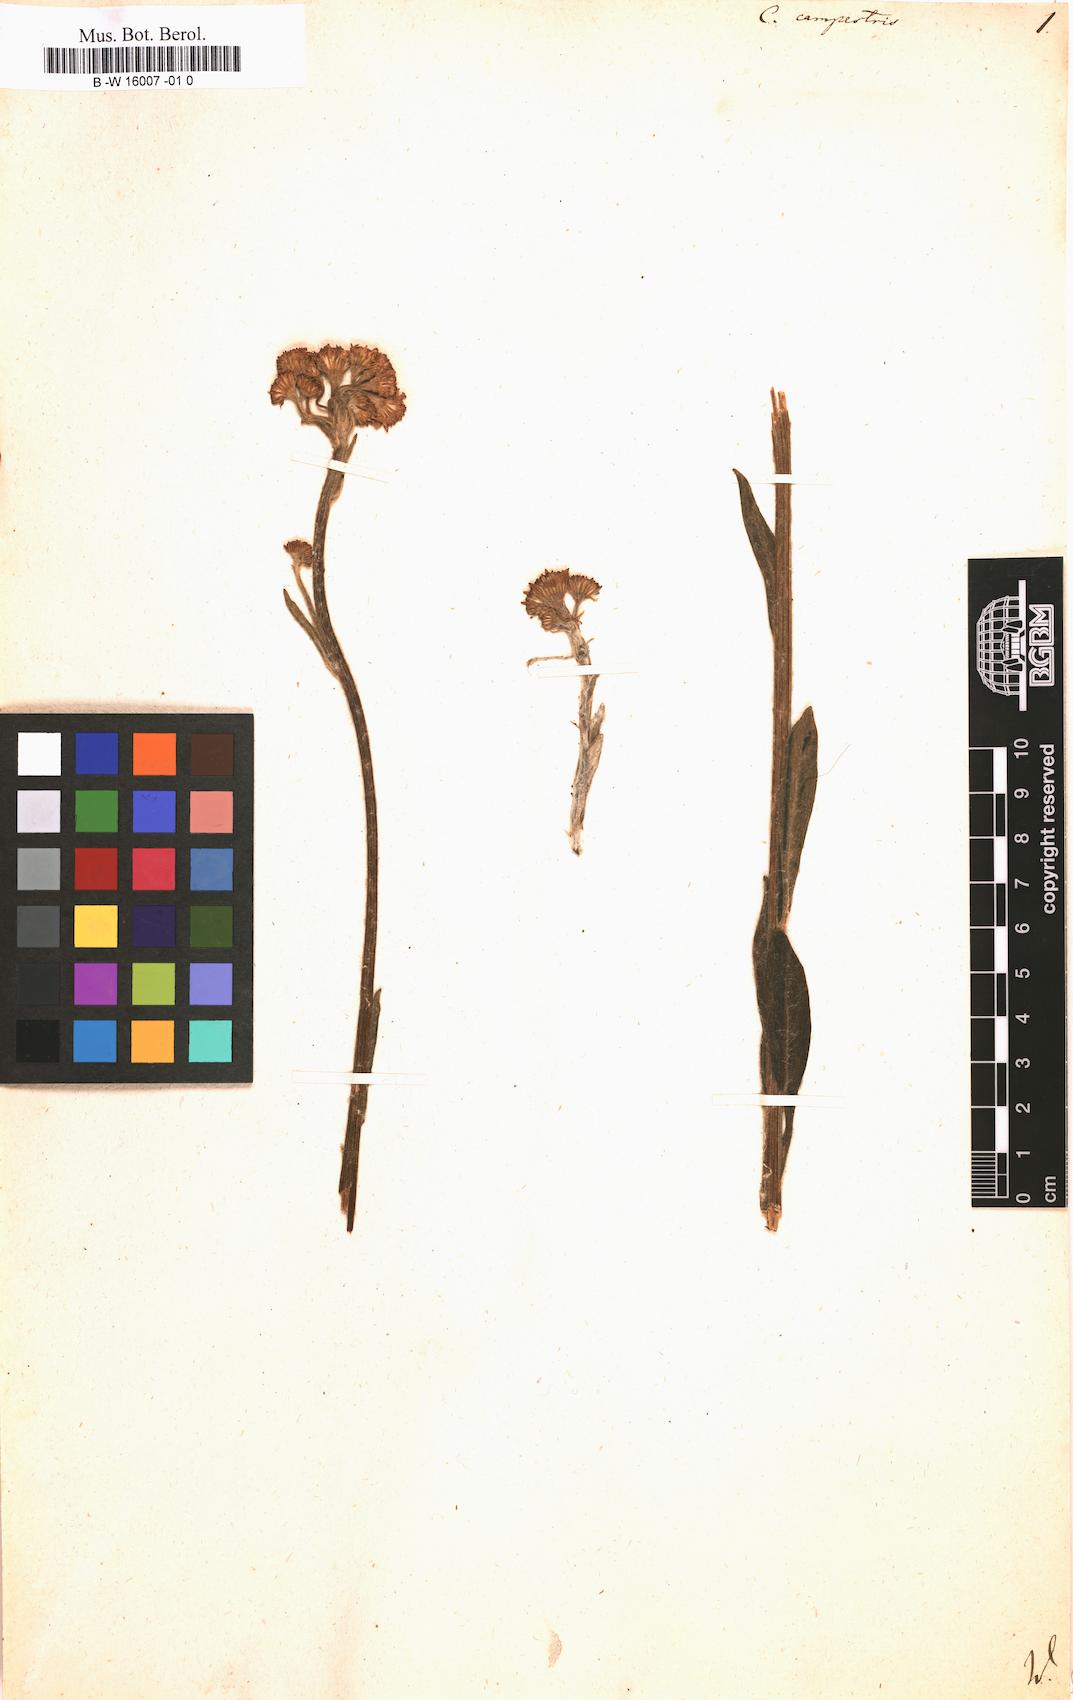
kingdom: Plantae
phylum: Tracheophyta
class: Magnoliopsida
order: Asterales
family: Asteraceae
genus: Tephroseris
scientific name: Tephroseris
